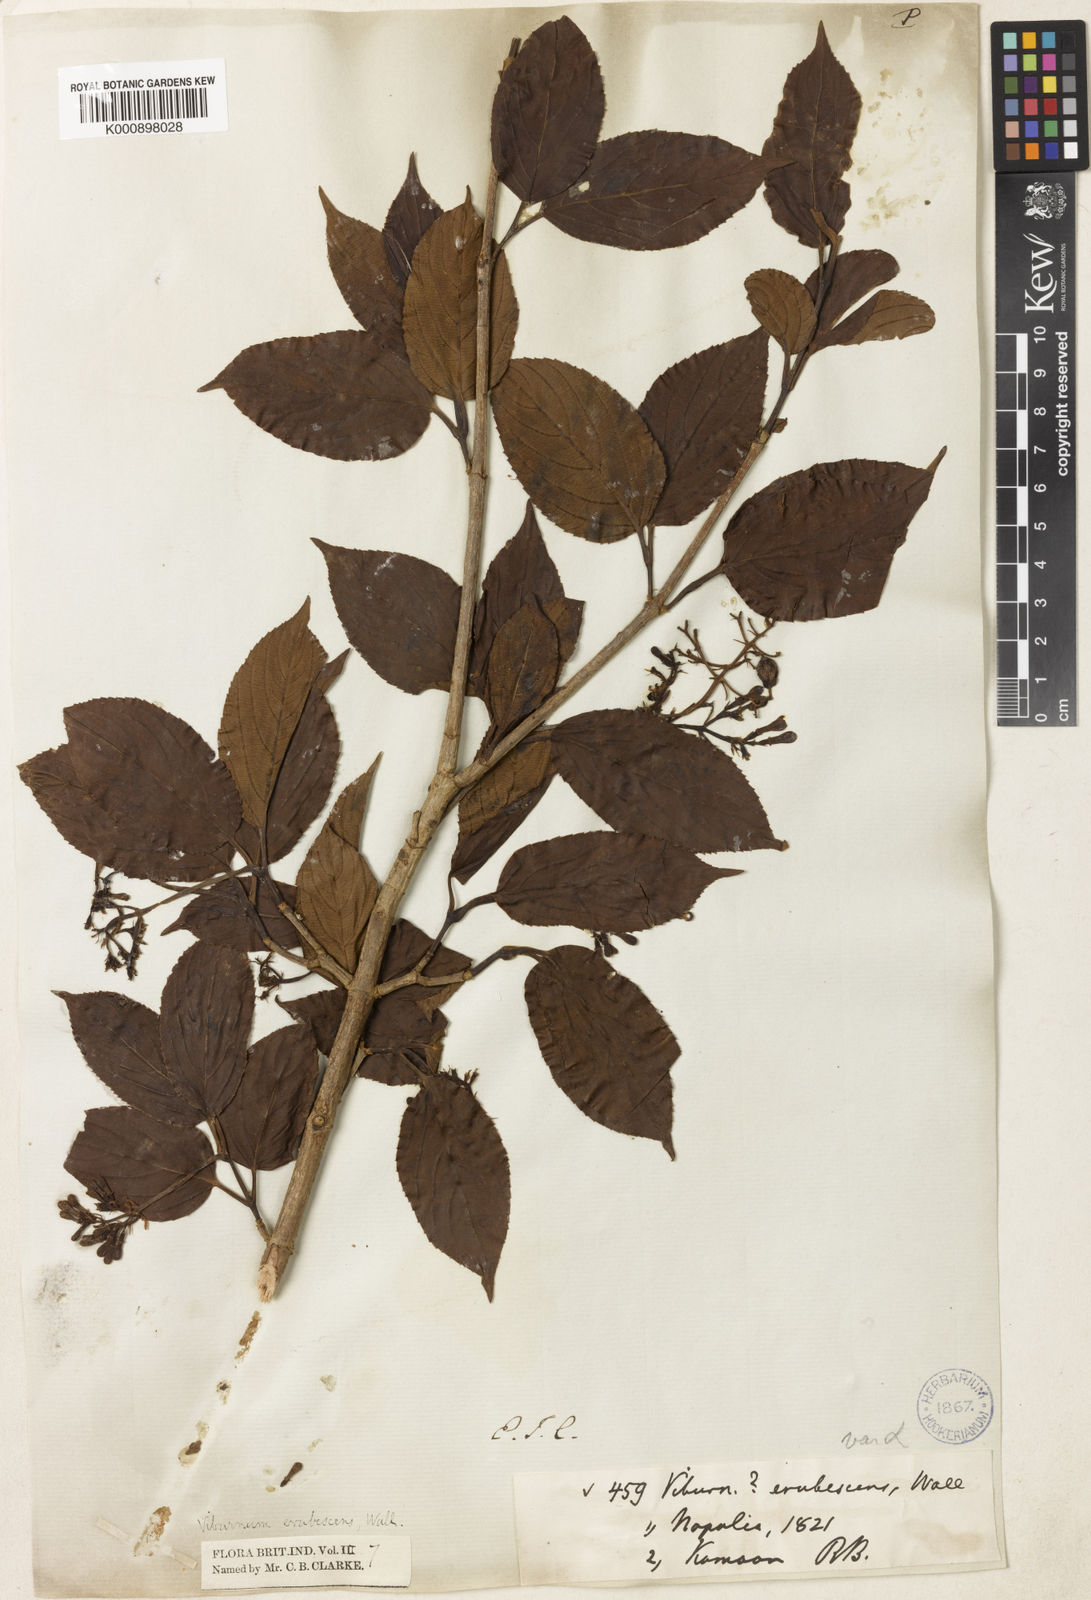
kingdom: Plantae
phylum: Tracheophyta
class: Magnoliopsida
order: Dipsacales
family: Viburnaceae
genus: Viburnum
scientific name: Viburnum
